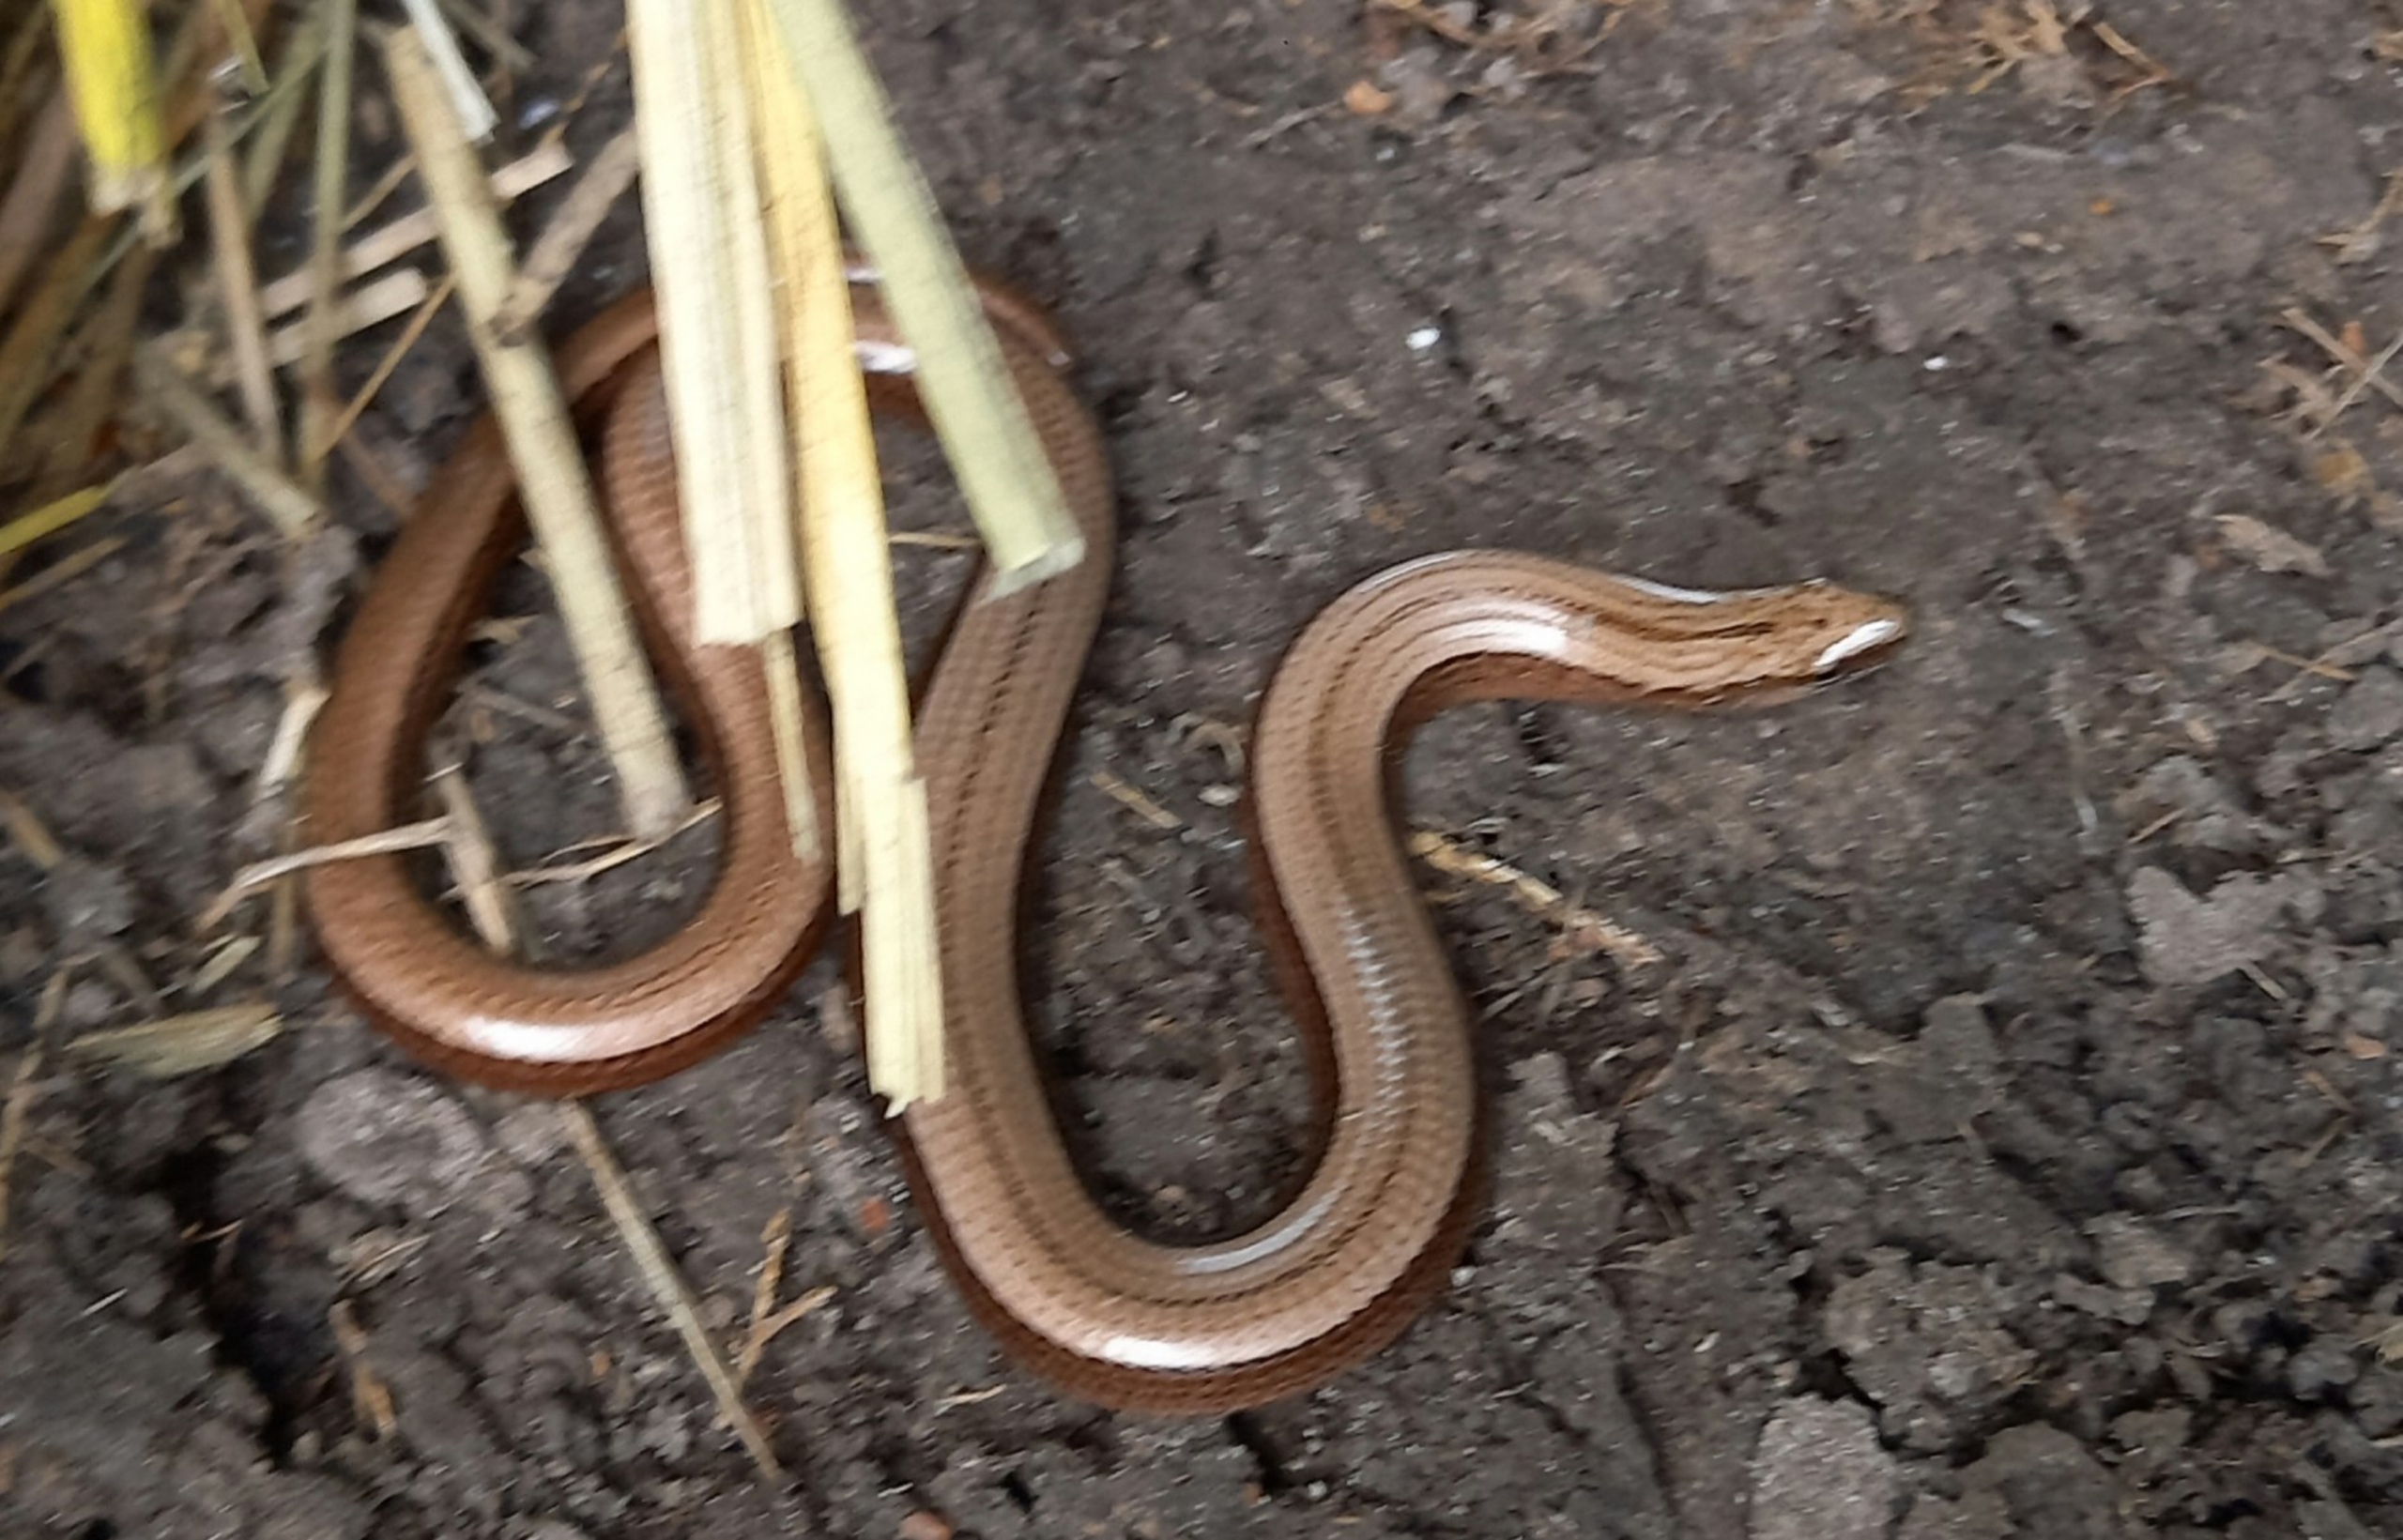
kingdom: Animalia
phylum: Chordata
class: Squamata
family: Anguidae
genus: Anguis
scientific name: Anguis fragilis
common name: Stålorm
